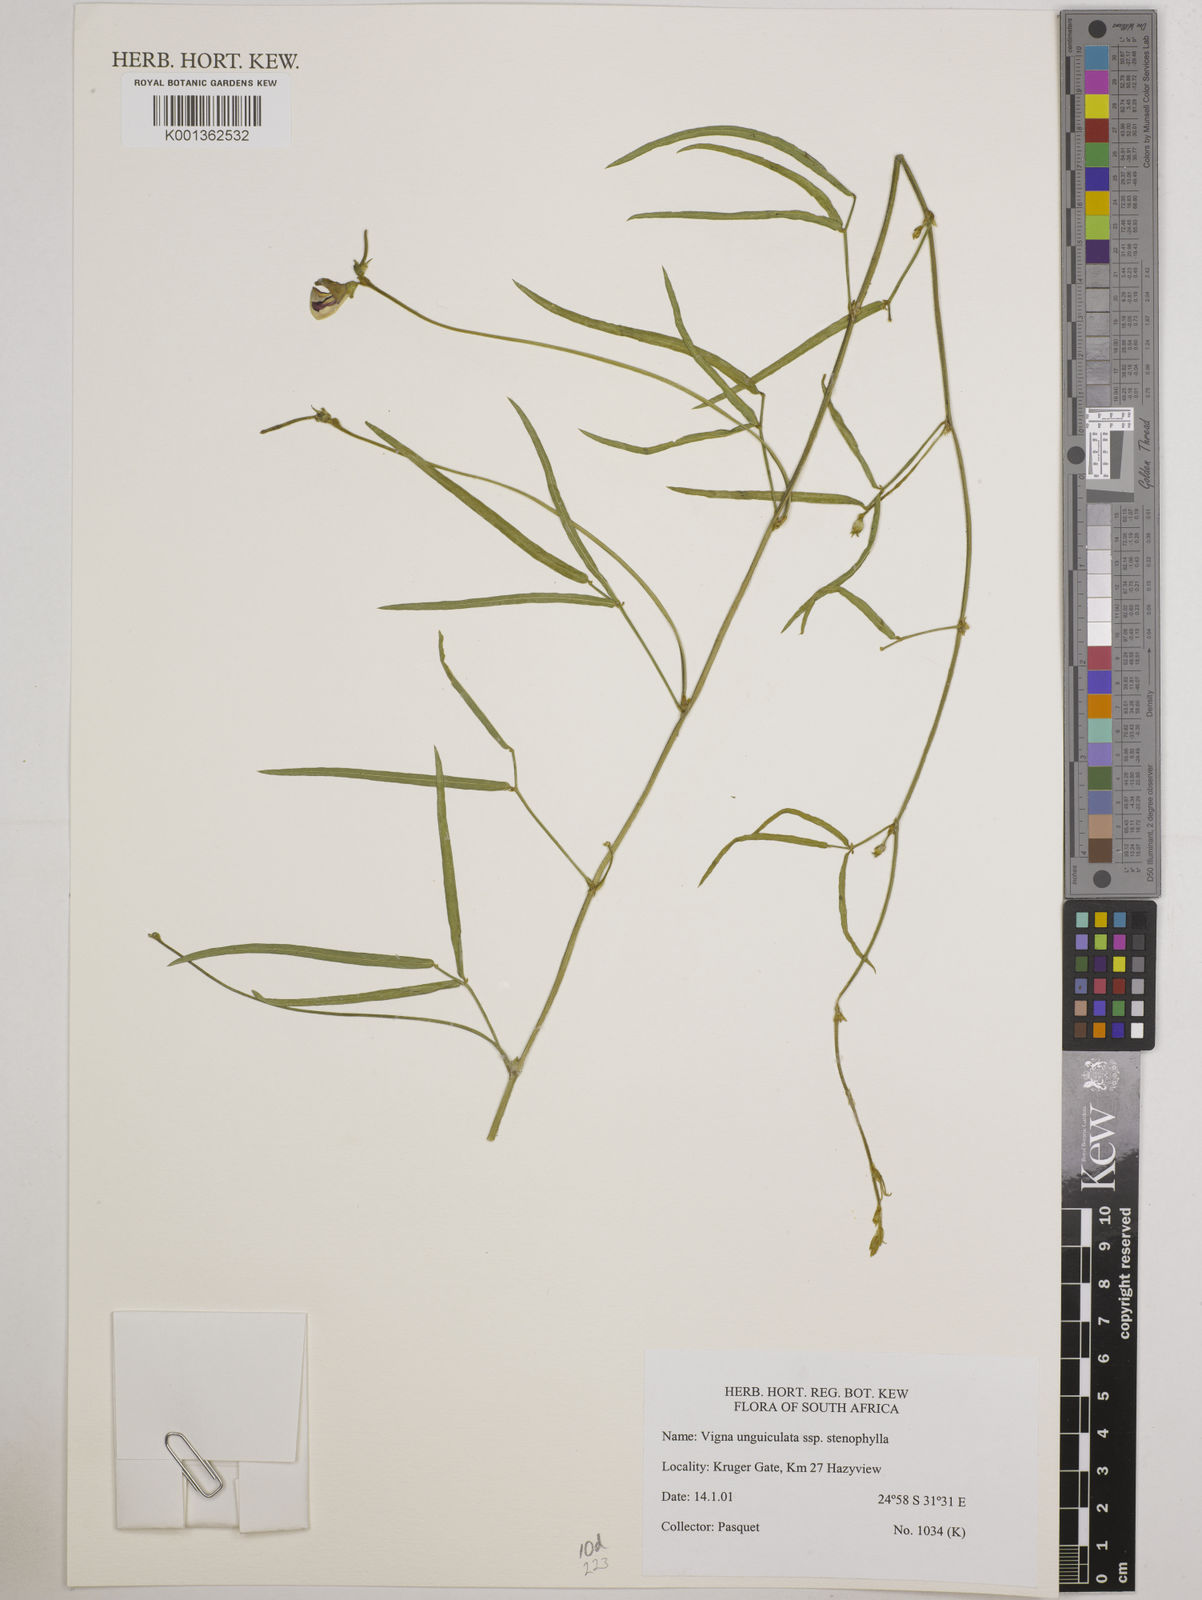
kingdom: Plantae
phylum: Tracheophyta
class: Magnoliopsida
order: Fabales
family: Fabaceae
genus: Vigna
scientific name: Vigna
